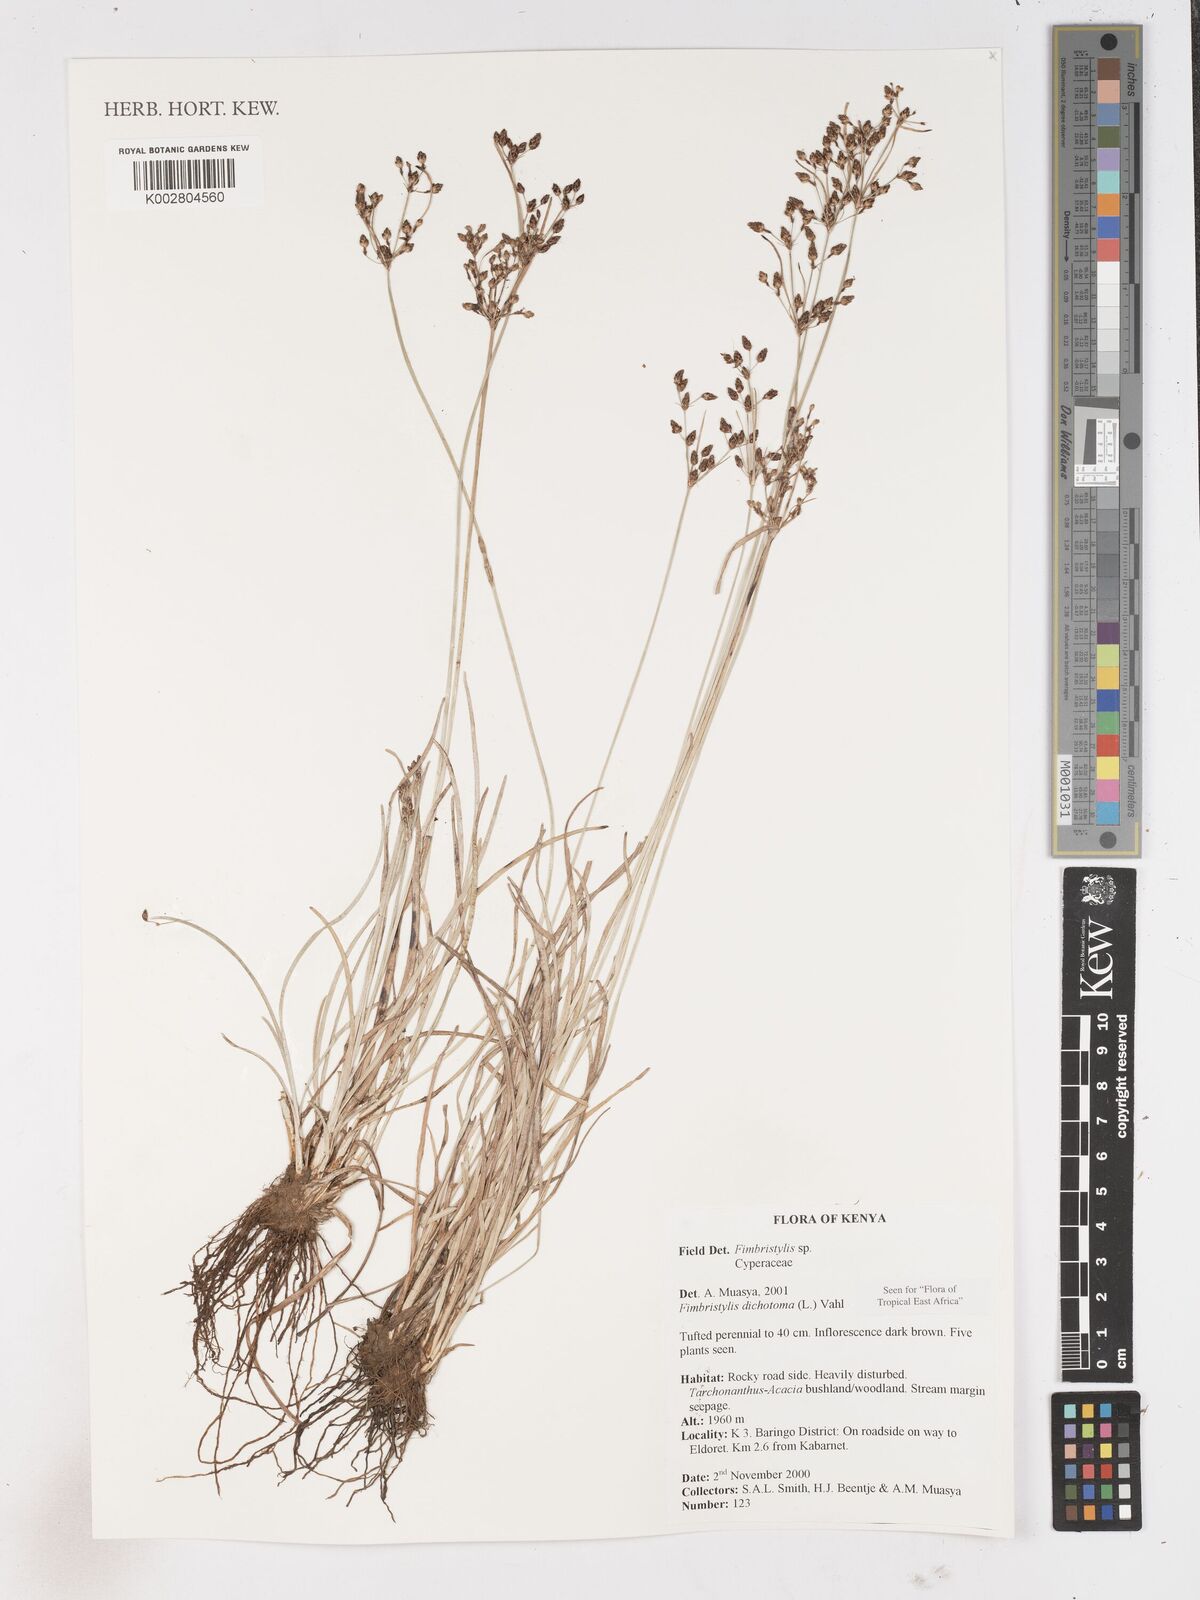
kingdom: Plantae
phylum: Tracheophyta
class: Liliopsida
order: Poales
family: Cyperaceae
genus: Fimbristylis
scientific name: Fimbristylis dichotoma
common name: Forked fimbry
